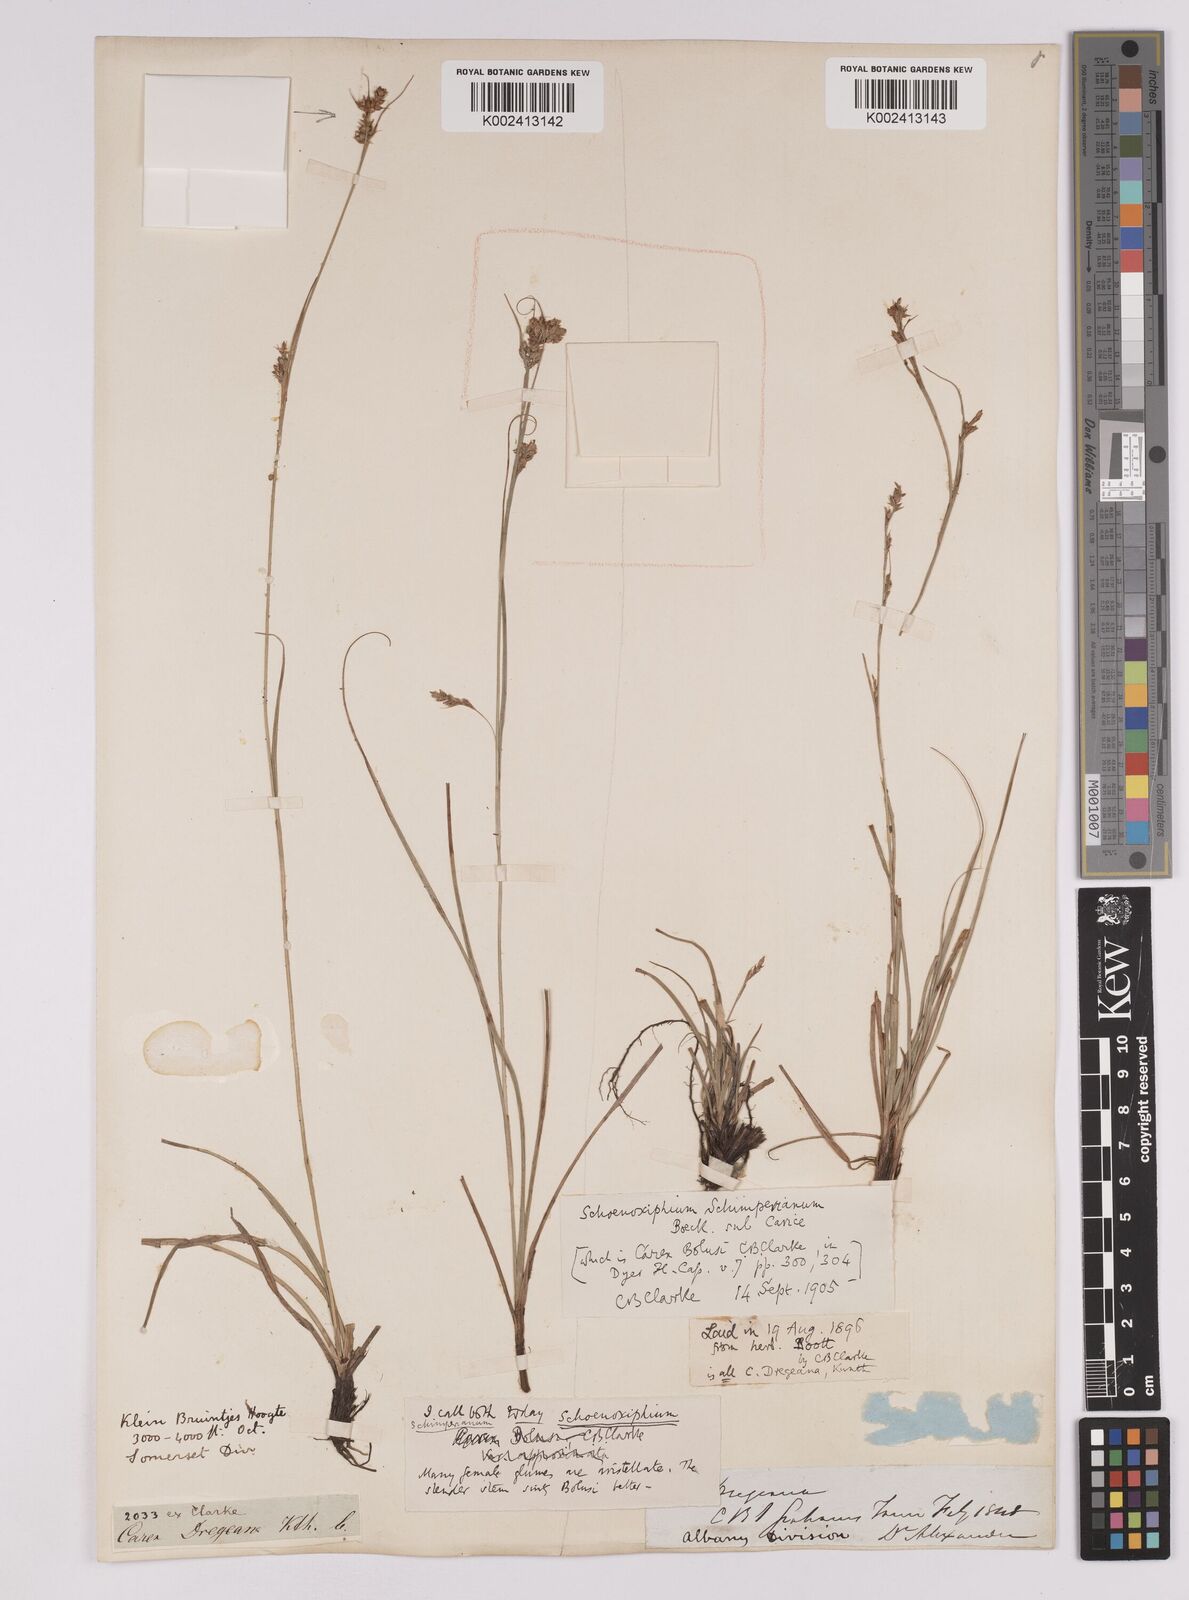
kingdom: Plantae
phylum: Tracheophyta
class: Liliopsida
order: Poales
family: Cyperaceae
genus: Carex
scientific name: Carex spartea
